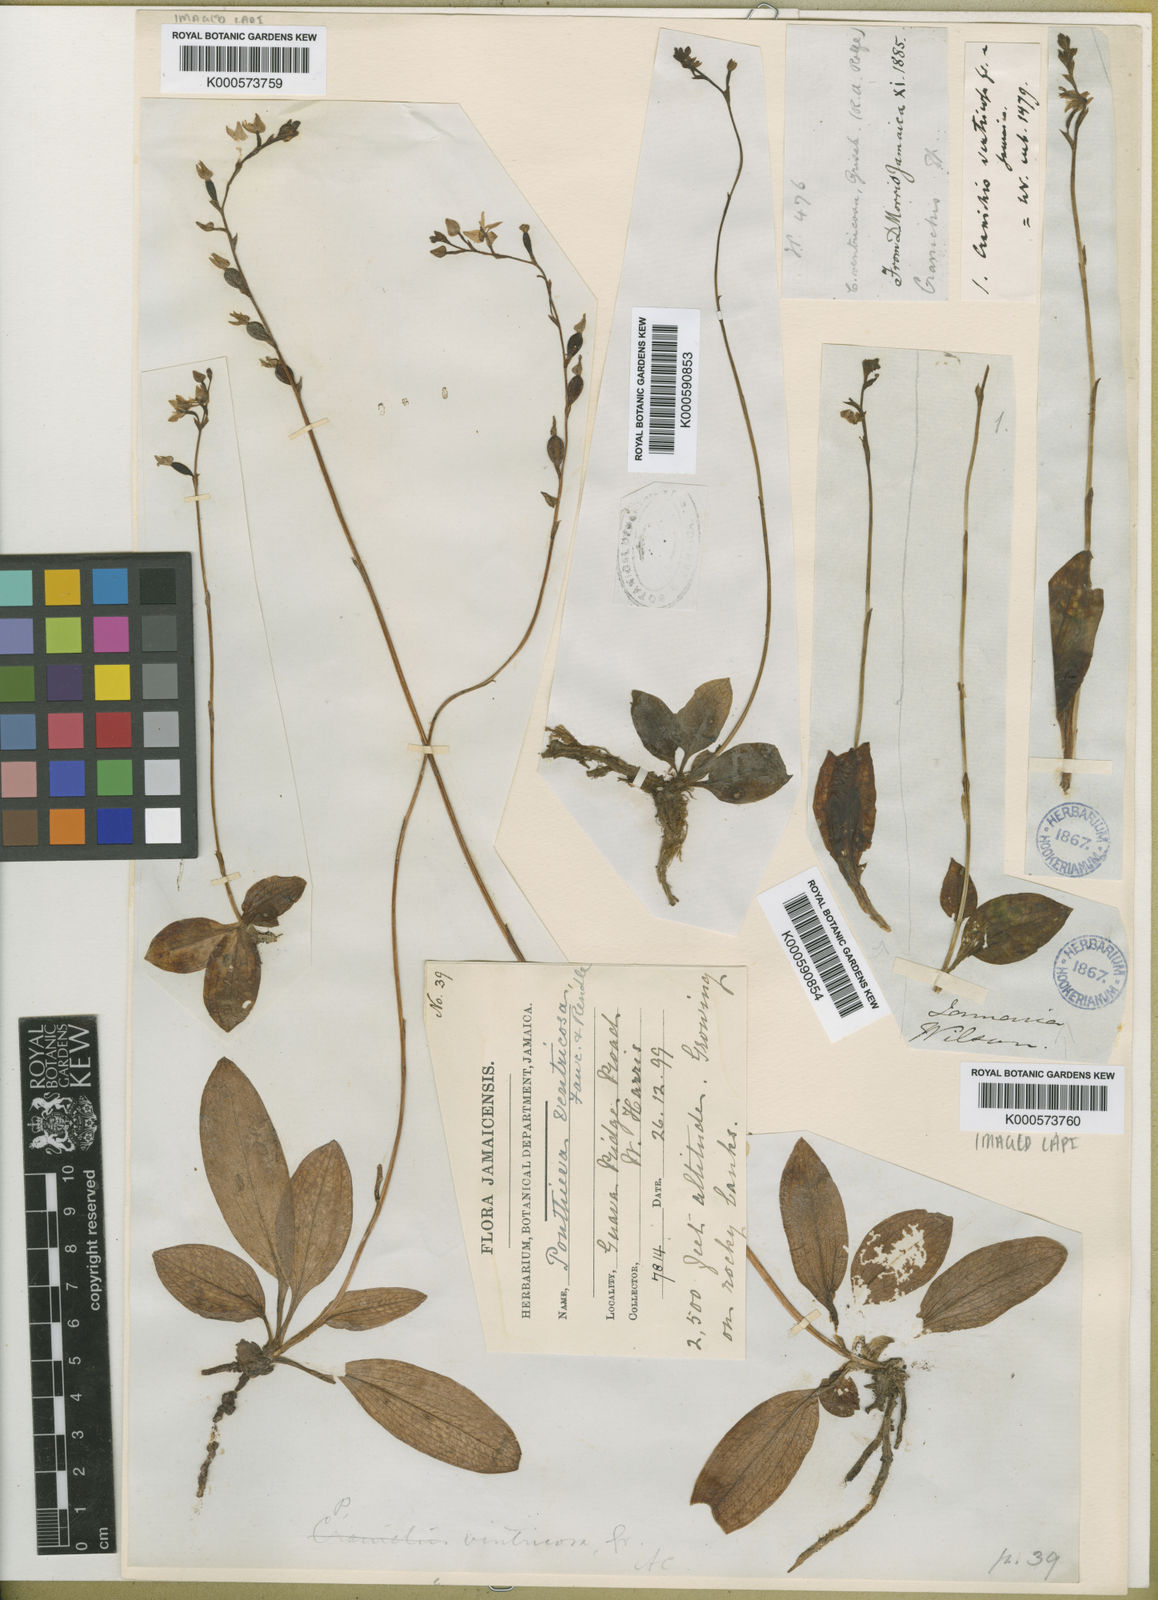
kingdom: Plantae
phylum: Tracheophyta
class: Liliopsida
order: Asparagales
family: Orchidaceae
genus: Ponthieva
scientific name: Ponthieva ventricosa
